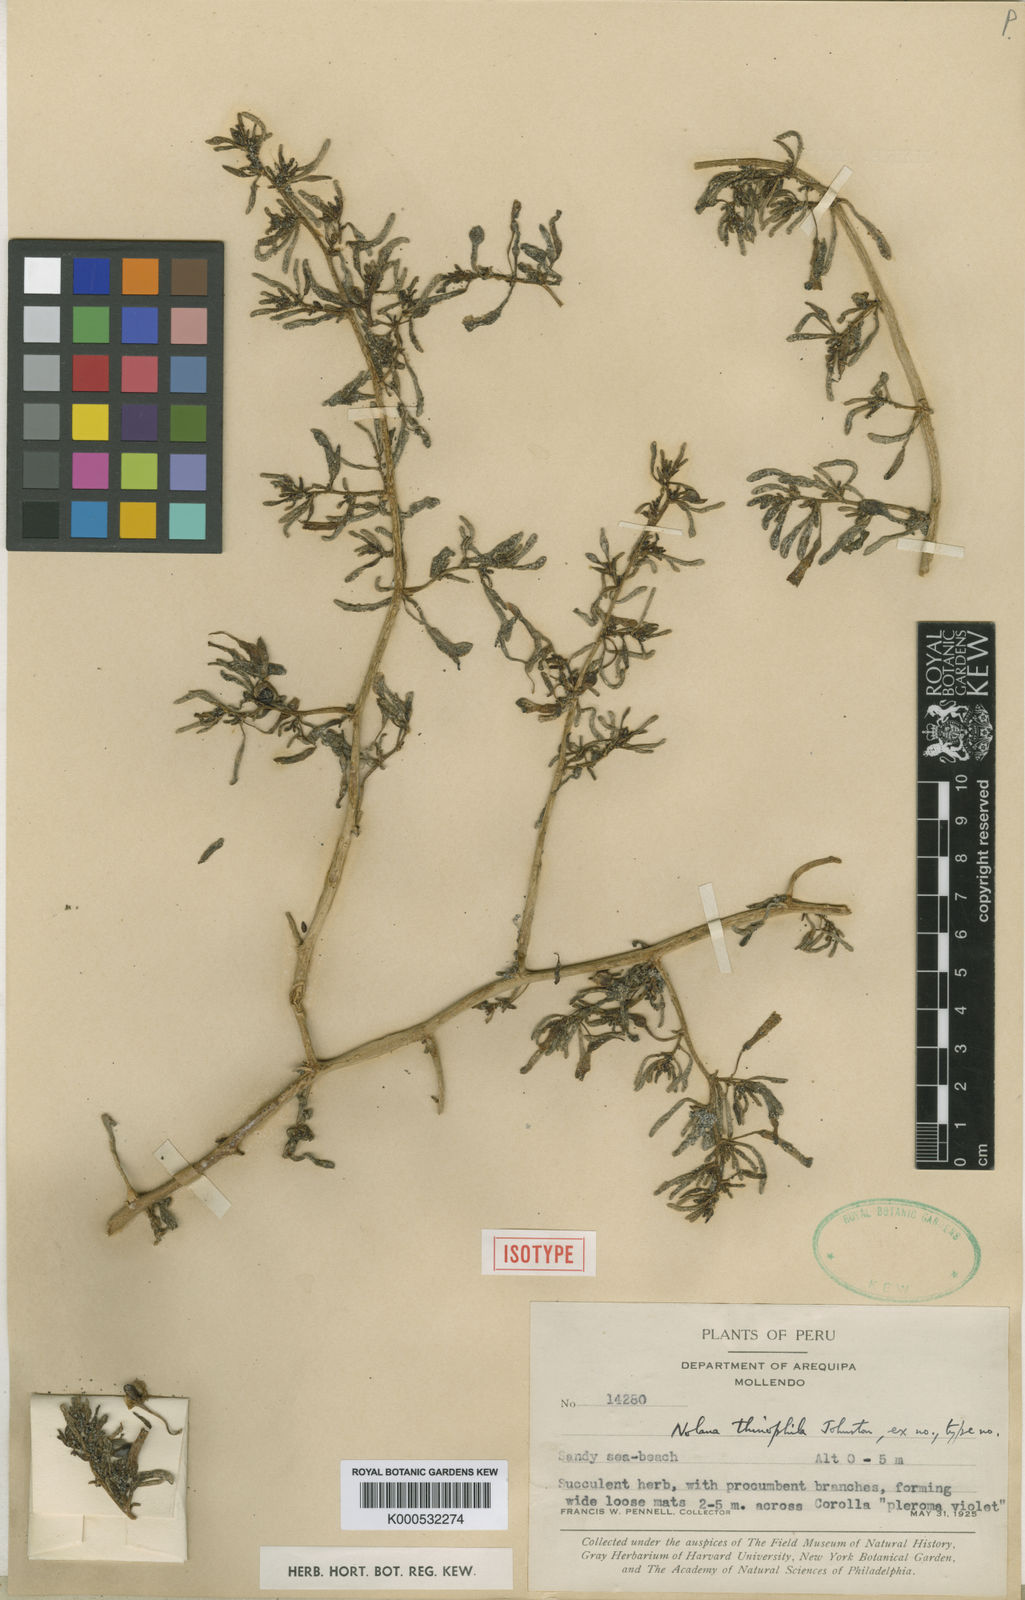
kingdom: Plantae
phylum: Tracheophyta
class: Magnoliopsida
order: Solanales
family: Solanaceae
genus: Nolana
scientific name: Nolana tarapacana
